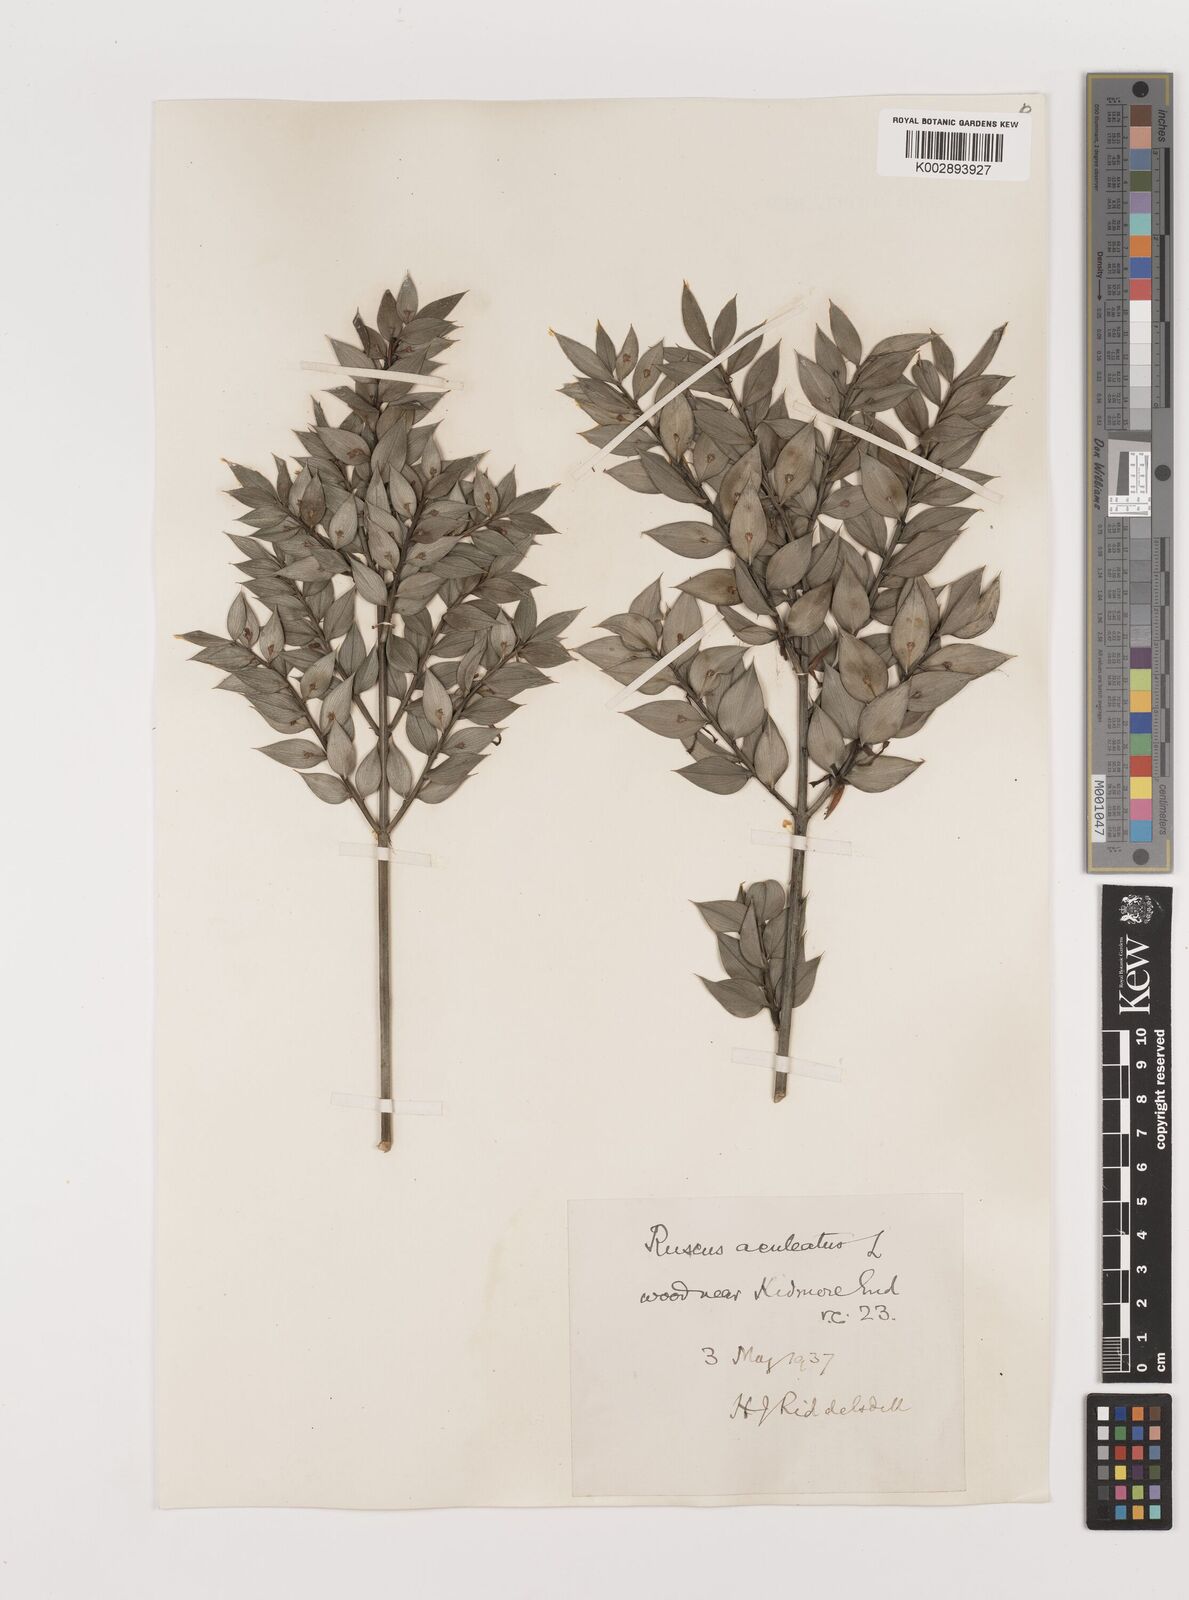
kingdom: Plantae
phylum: Tracheophyta
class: Liliopsida
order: Asparagales
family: Asparagaceae
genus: Ruscus
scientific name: Ruscus aculeatus
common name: Butcher's-broom
